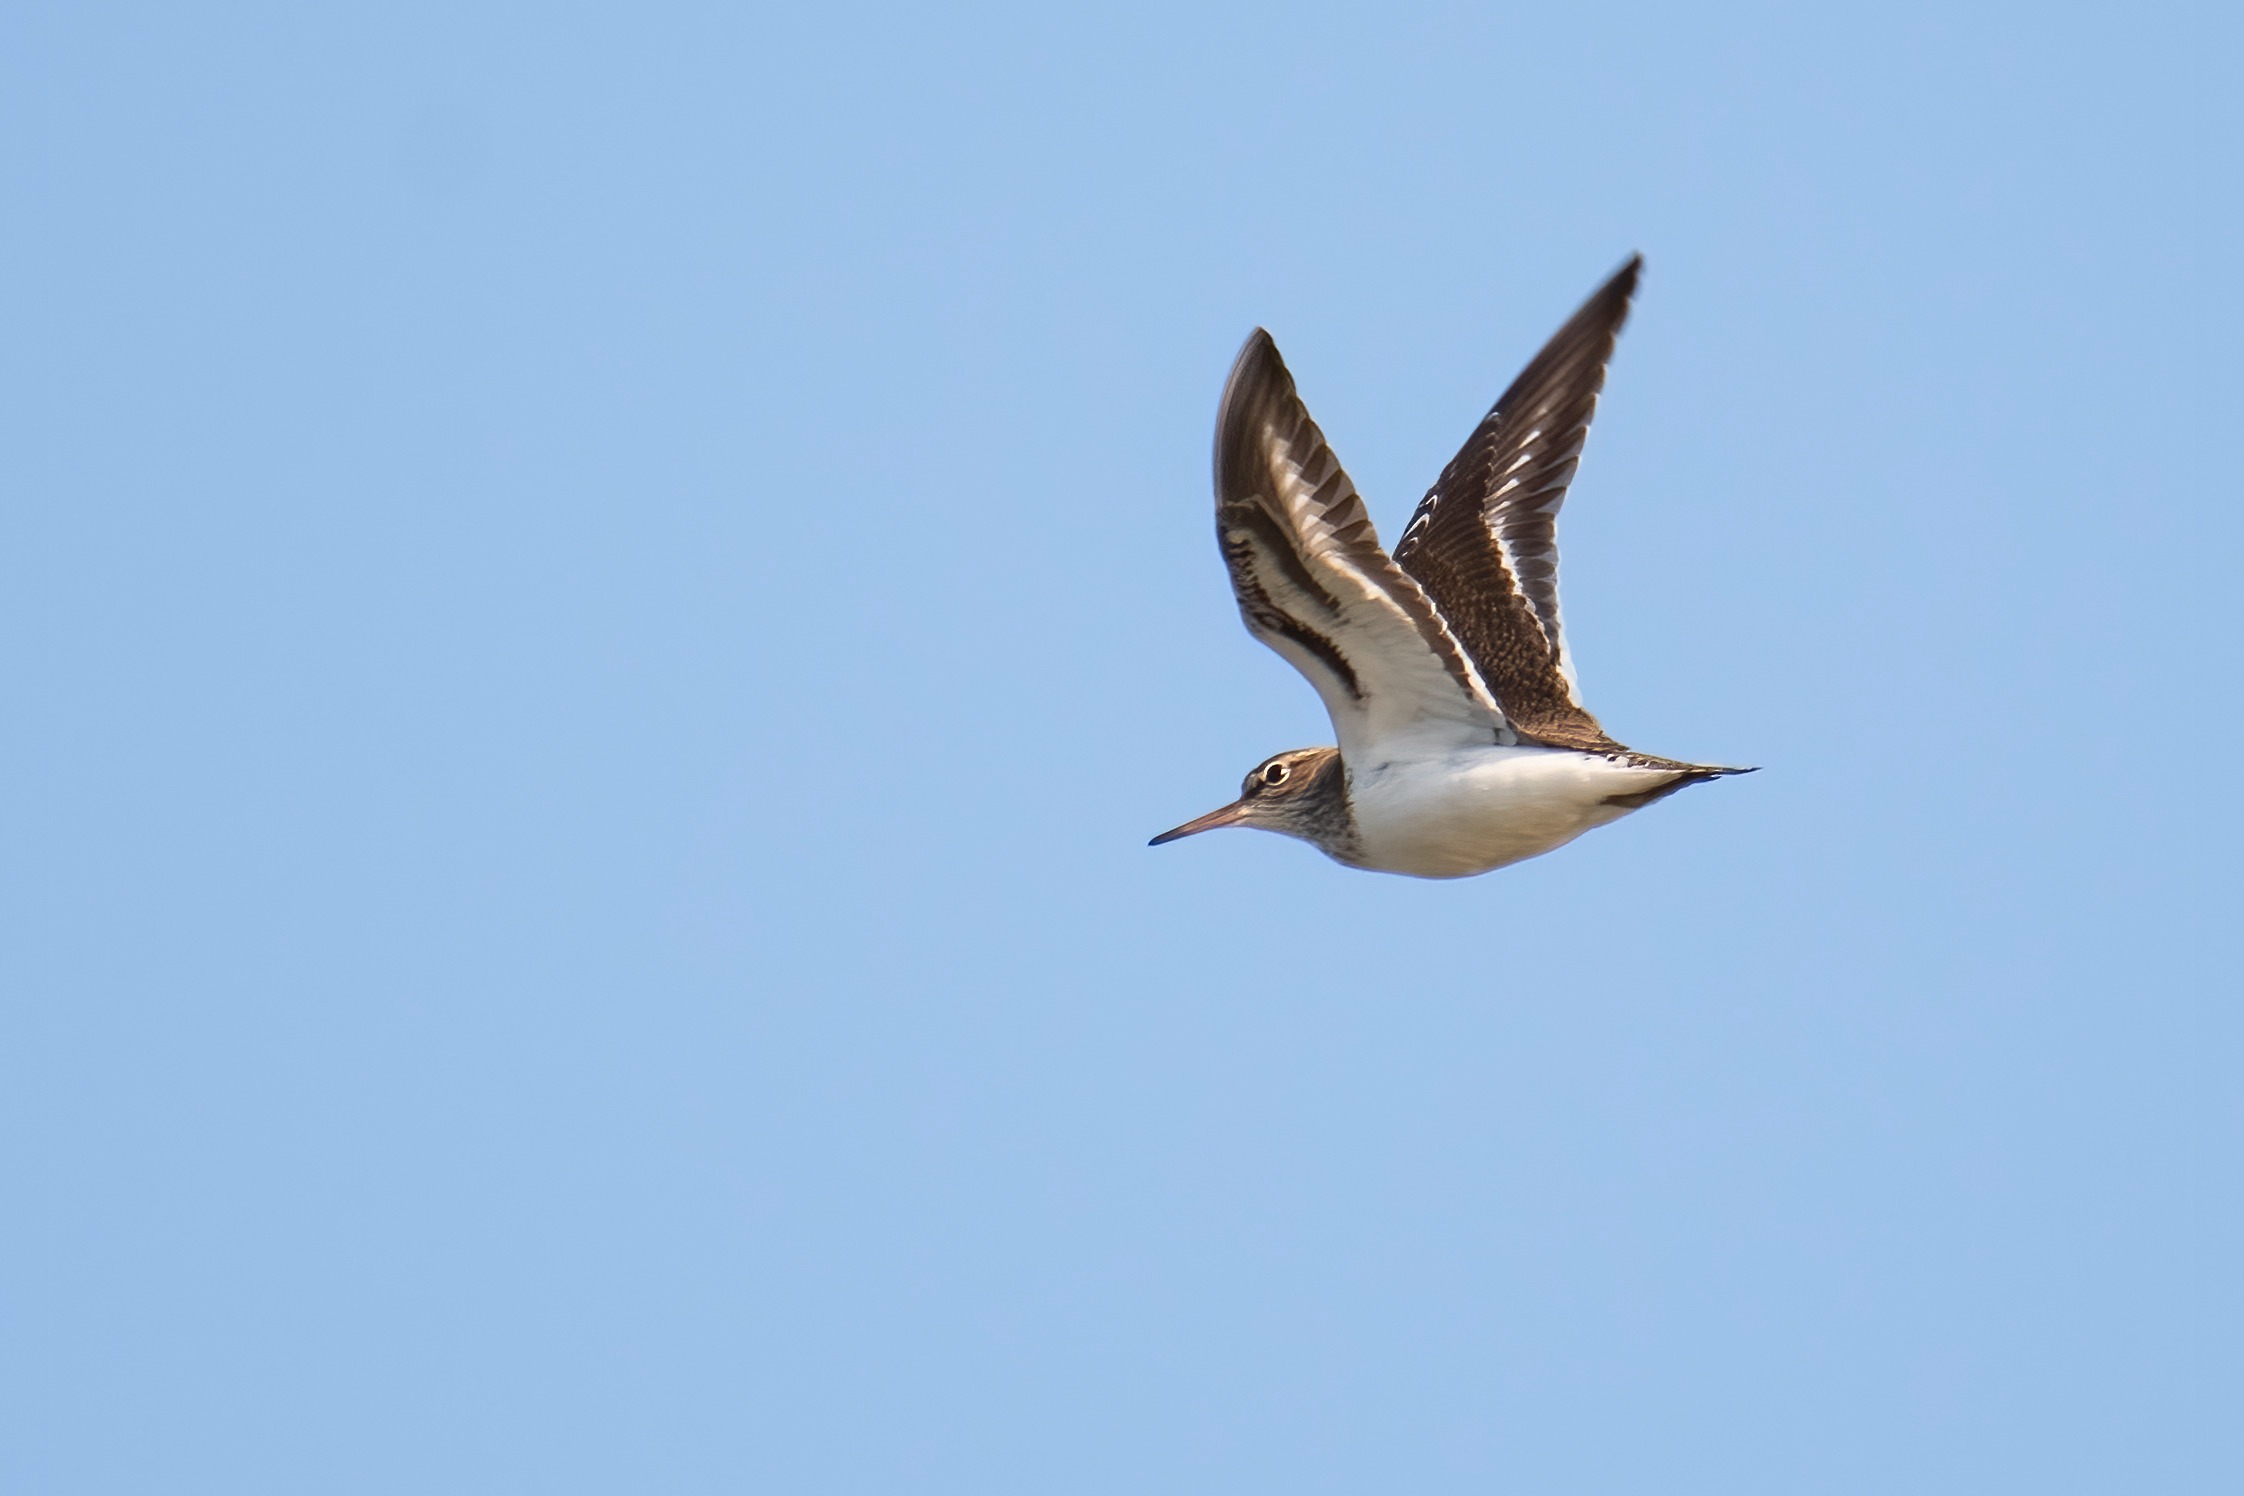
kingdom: Animalia
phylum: Chordata
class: Aves
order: Charadriiformes
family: Scolopacidae
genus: Actitis
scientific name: Actitis hypoleucos
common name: Mudderklire
